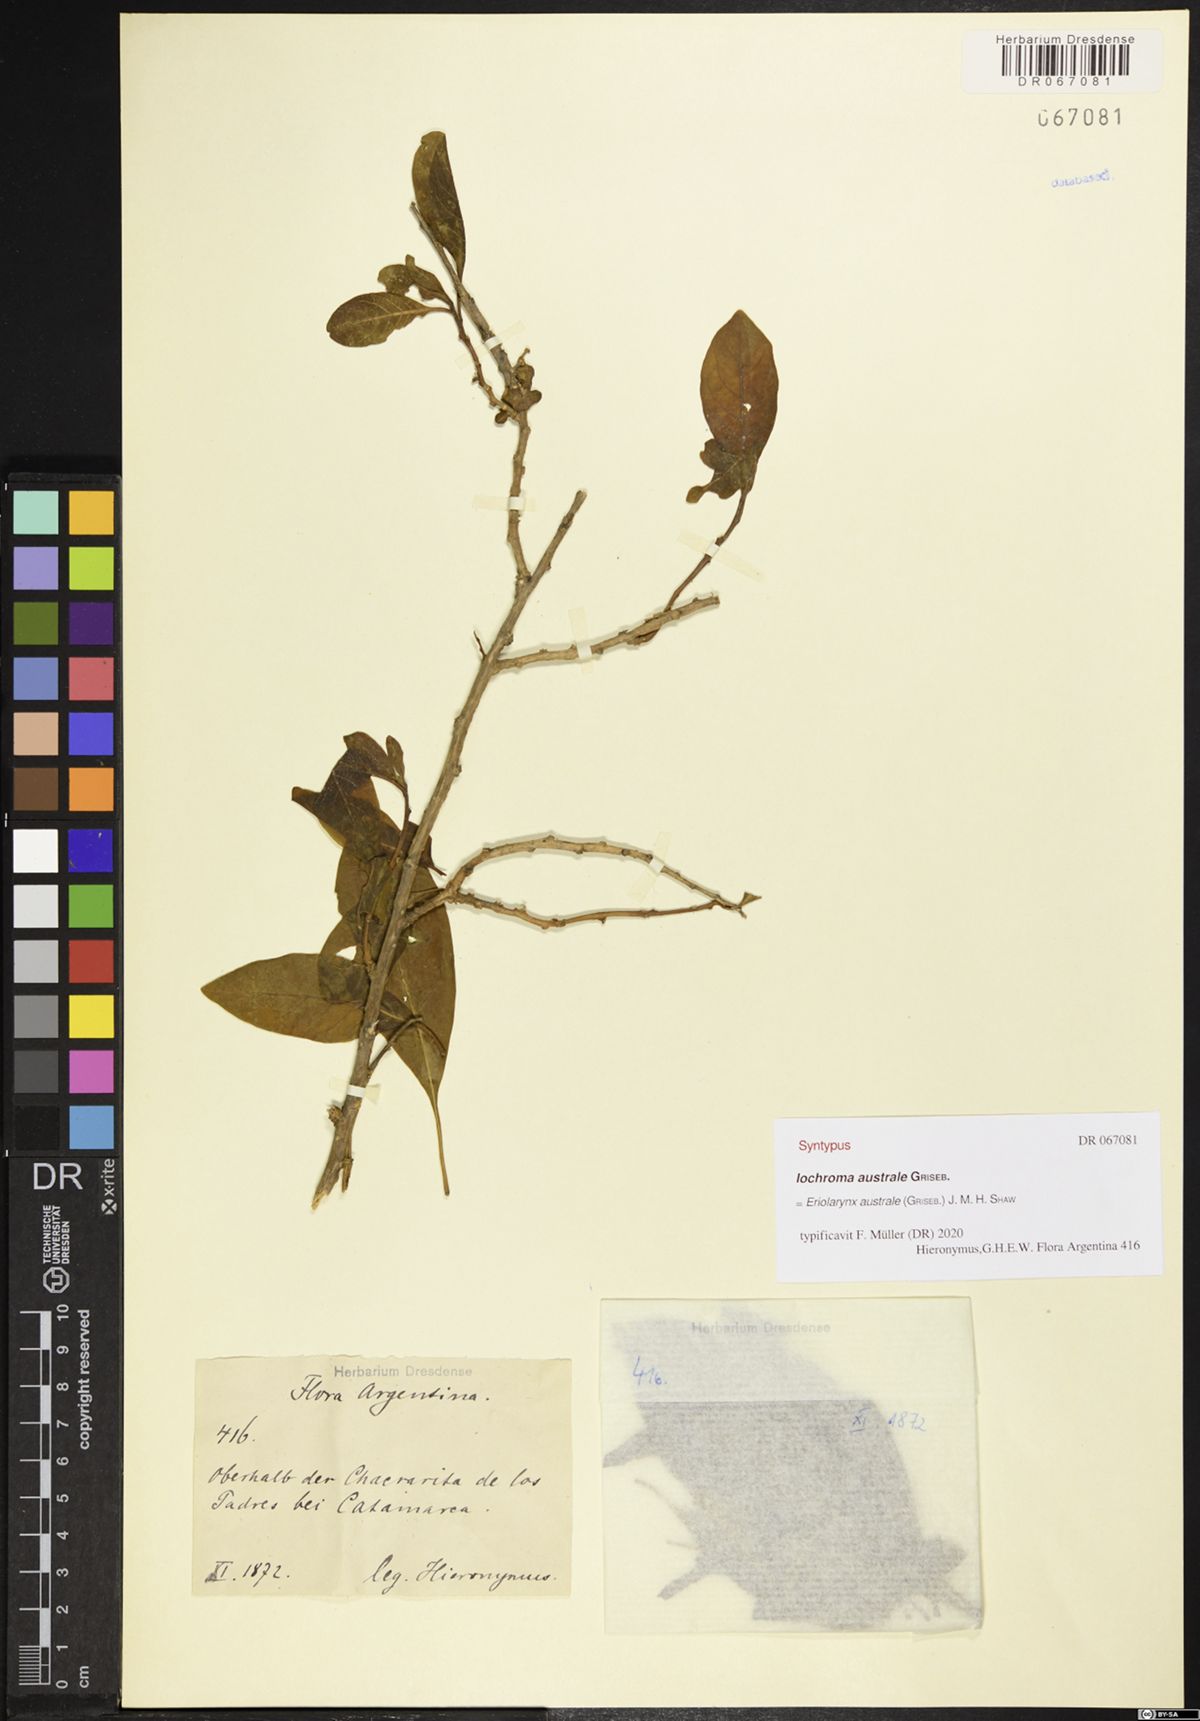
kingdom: Plantae
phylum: Tracheophyta
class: Magnoliopsida
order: Solanales
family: Solanaceae
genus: Eriolarynx
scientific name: Eriolarynx australis
